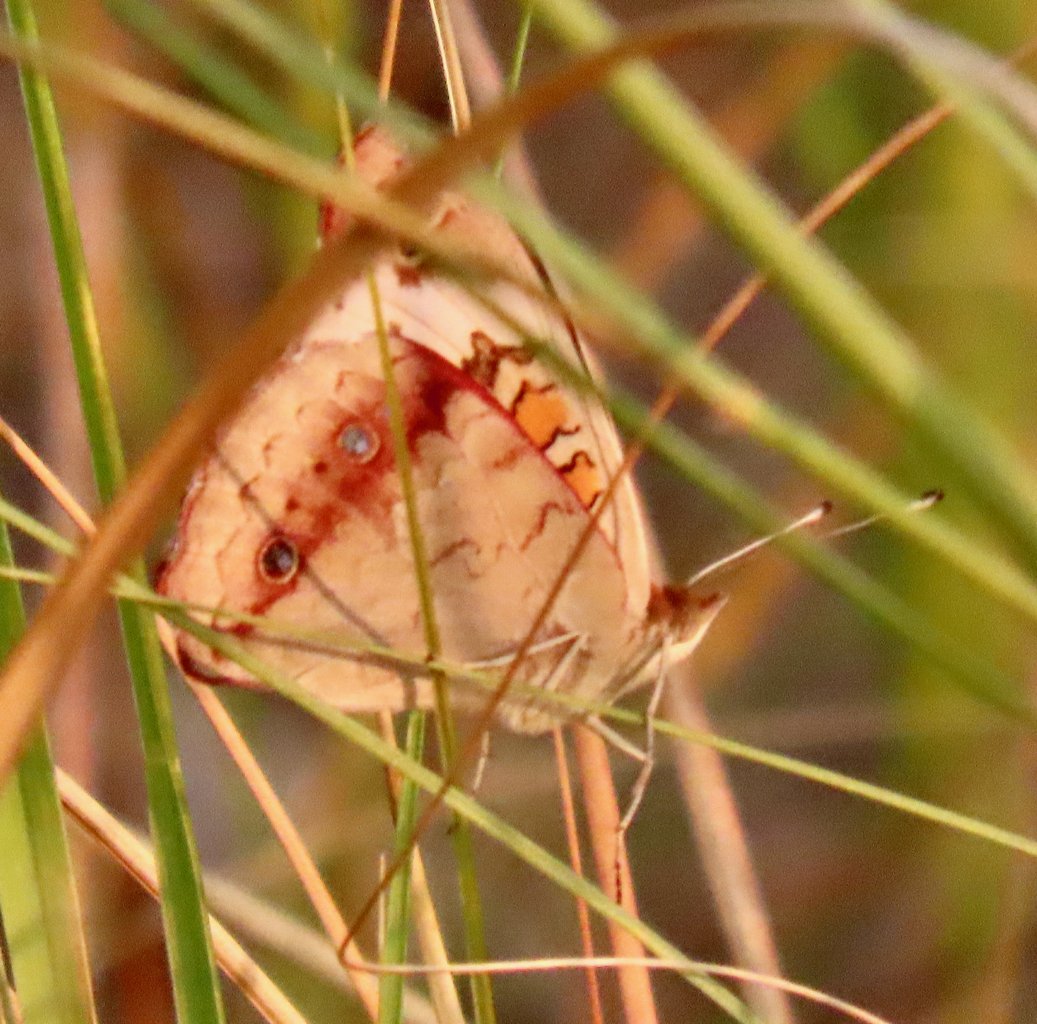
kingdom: Animalia
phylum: Arthropoda
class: Insecta
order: Lepidoptera
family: Nymphalidae
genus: Junonia
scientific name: Junonia coenia
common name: Common Buckeye
